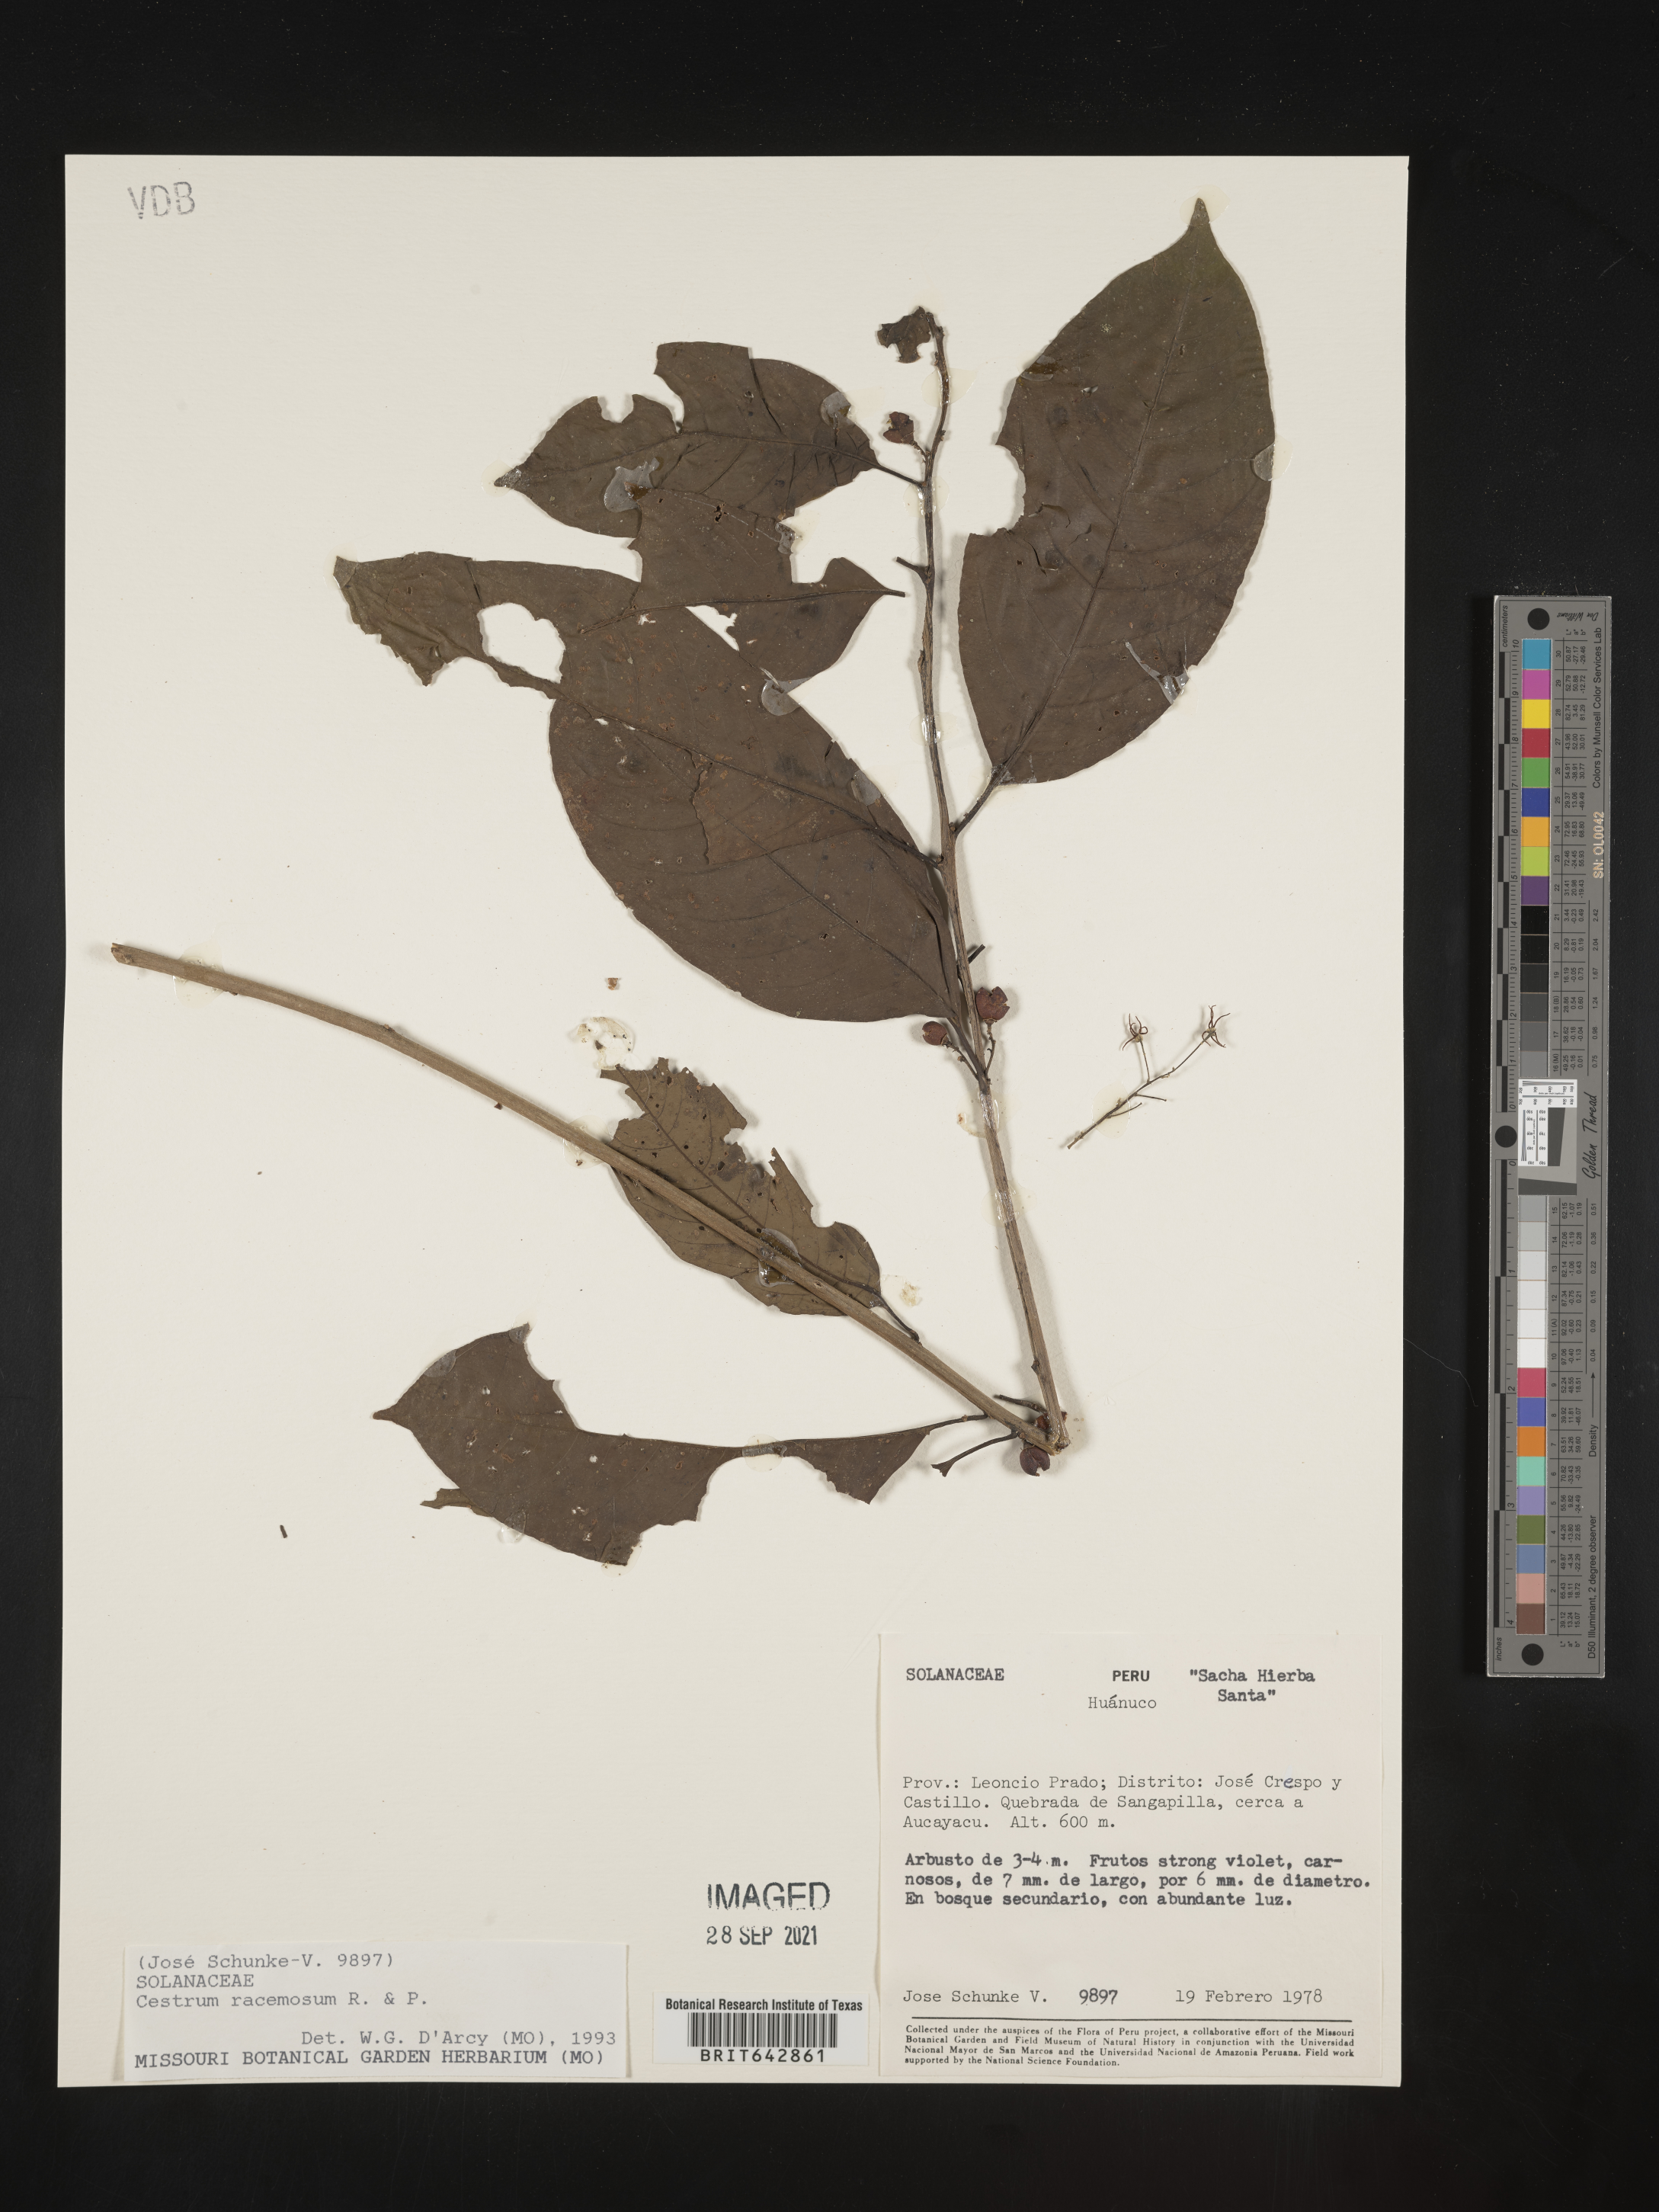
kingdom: Plantae
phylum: Tracheophyta
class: Magnoliopsida
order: Solanales
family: Solanaceae
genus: Cestrum
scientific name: Cestrum
